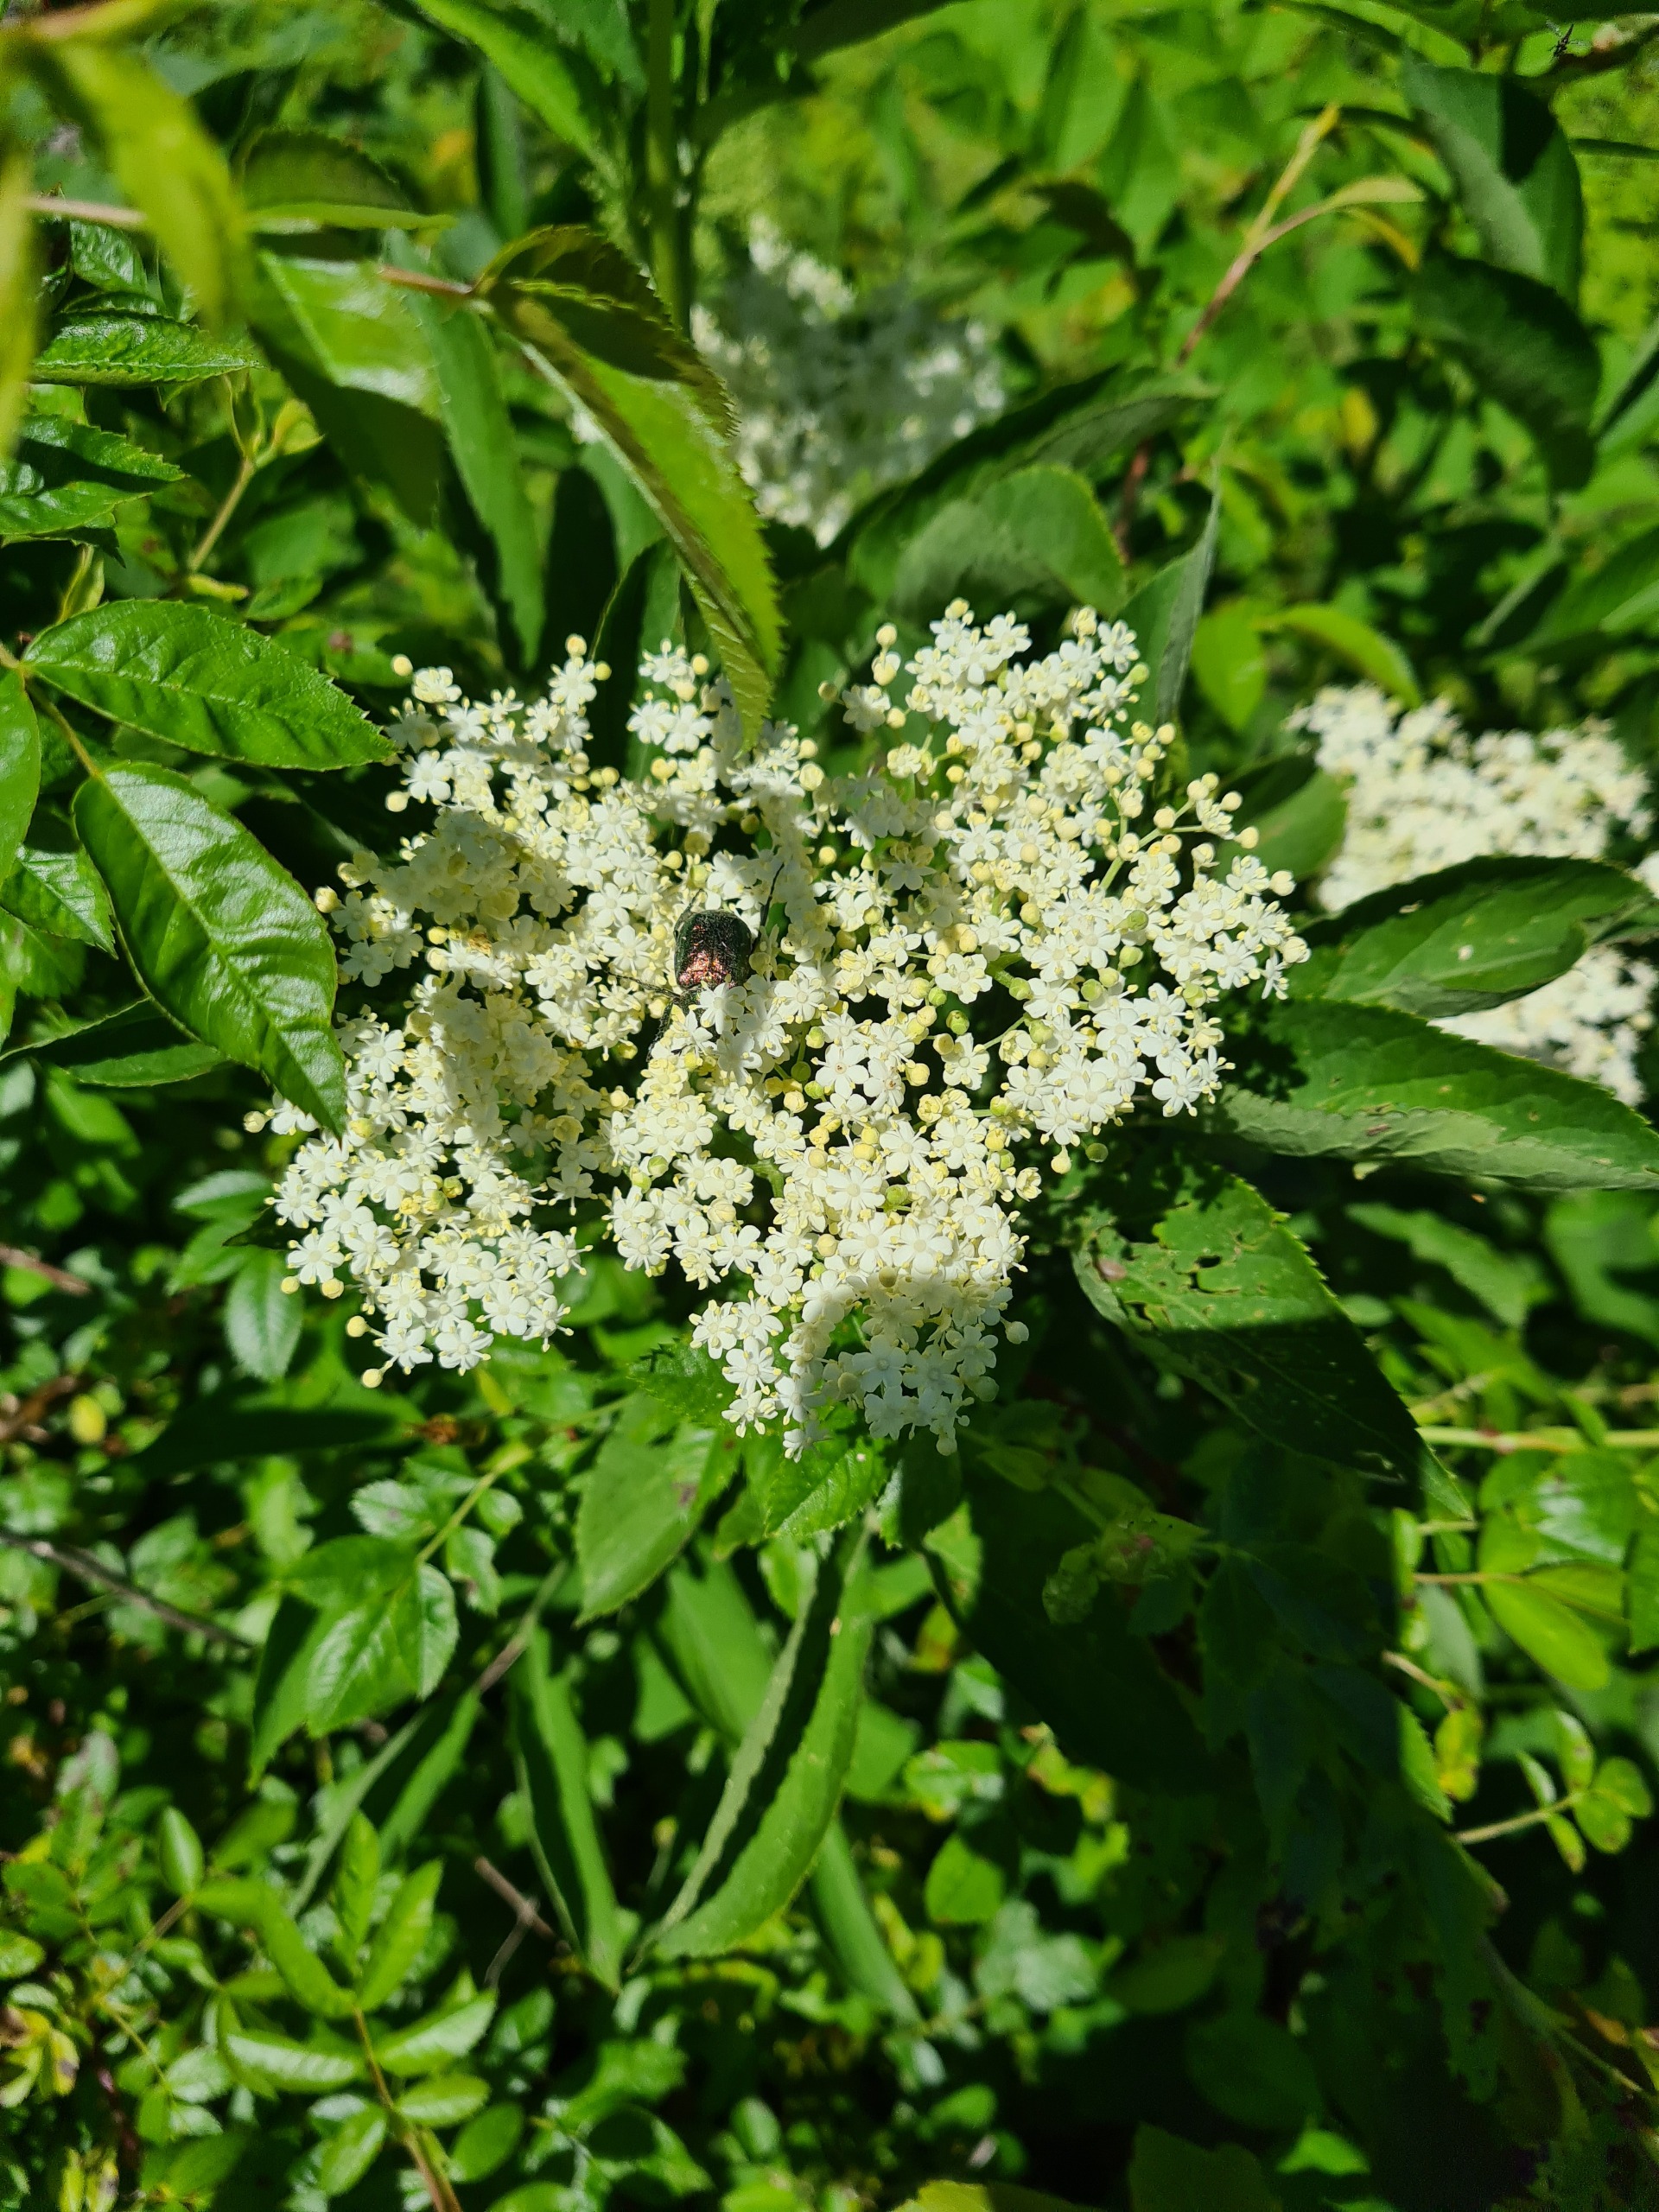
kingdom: Animalia
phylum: Arthropoda
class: Insecta
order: Coleoptera
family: Scarabaeidae
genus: Gnorimus
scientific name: Gnorimus nobilis
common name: Grøn pragttorbist
